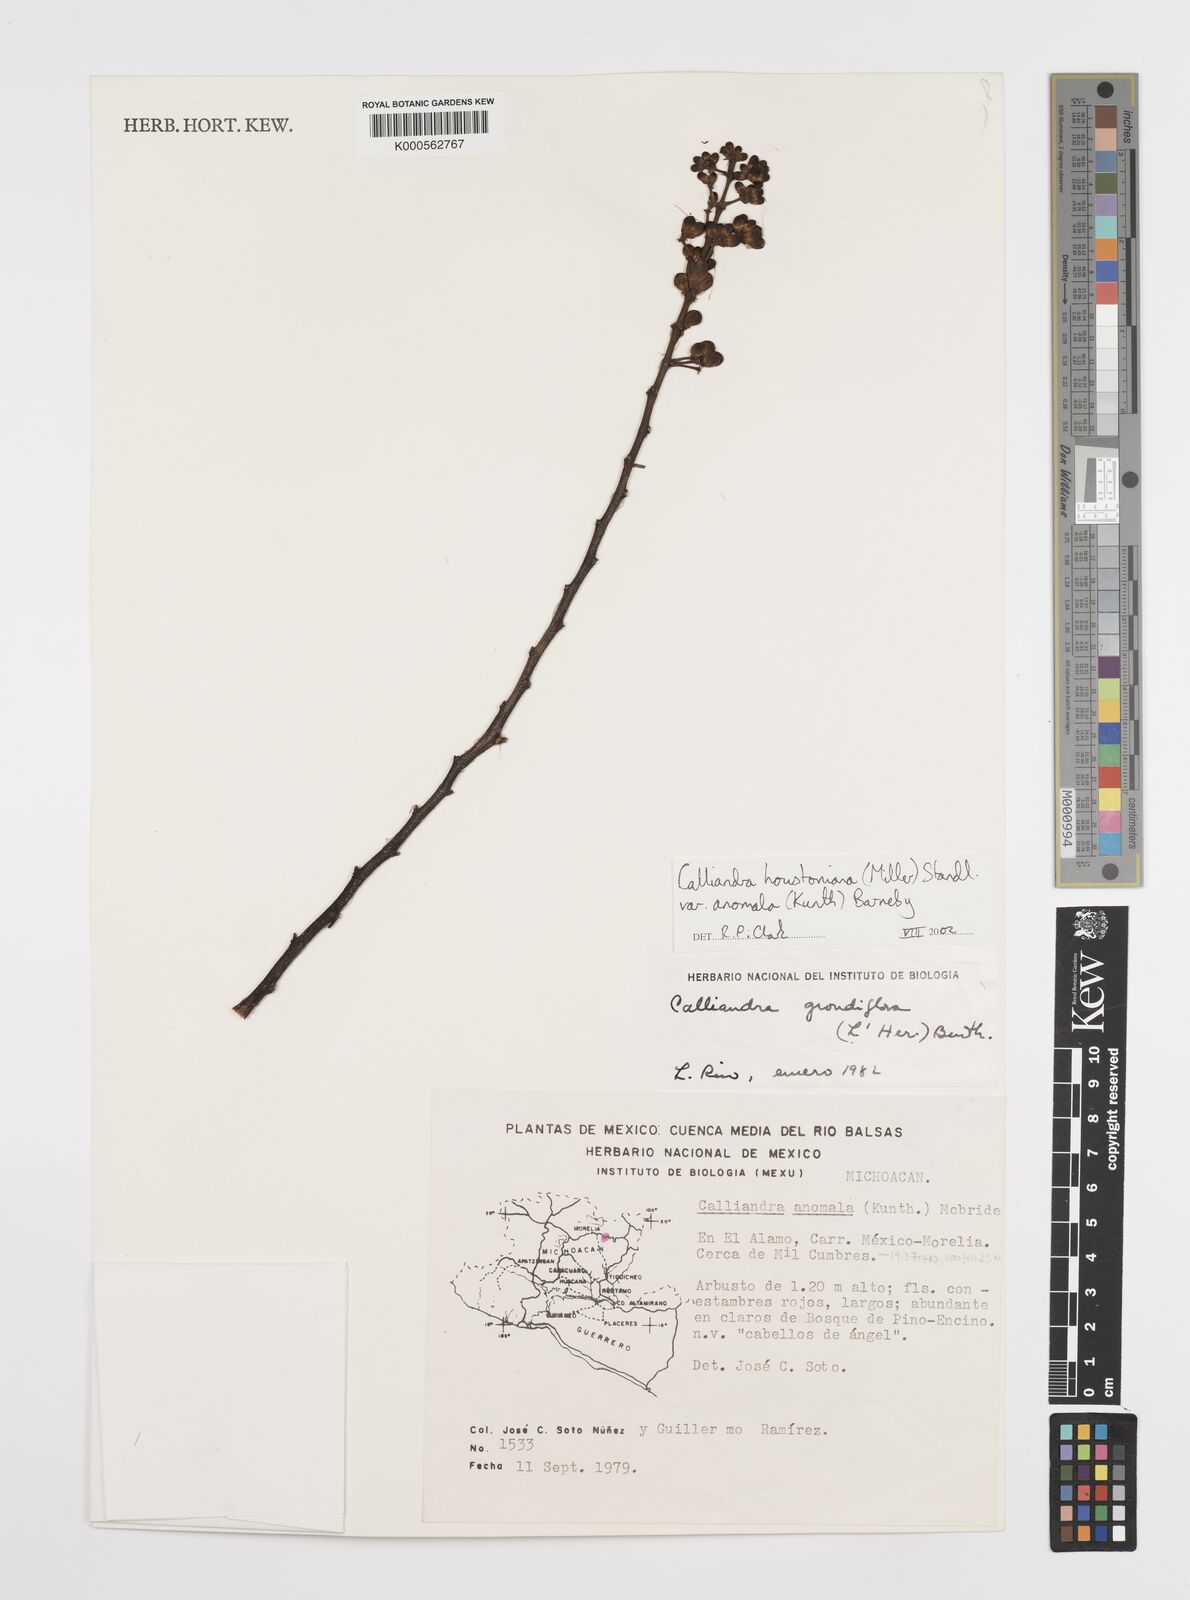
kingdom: Plantae
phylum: Tracheophyta
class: Magnoliopsida
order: Fabales
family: Fabaceae
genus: Calliandra
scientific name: Calliandra houstoniana
